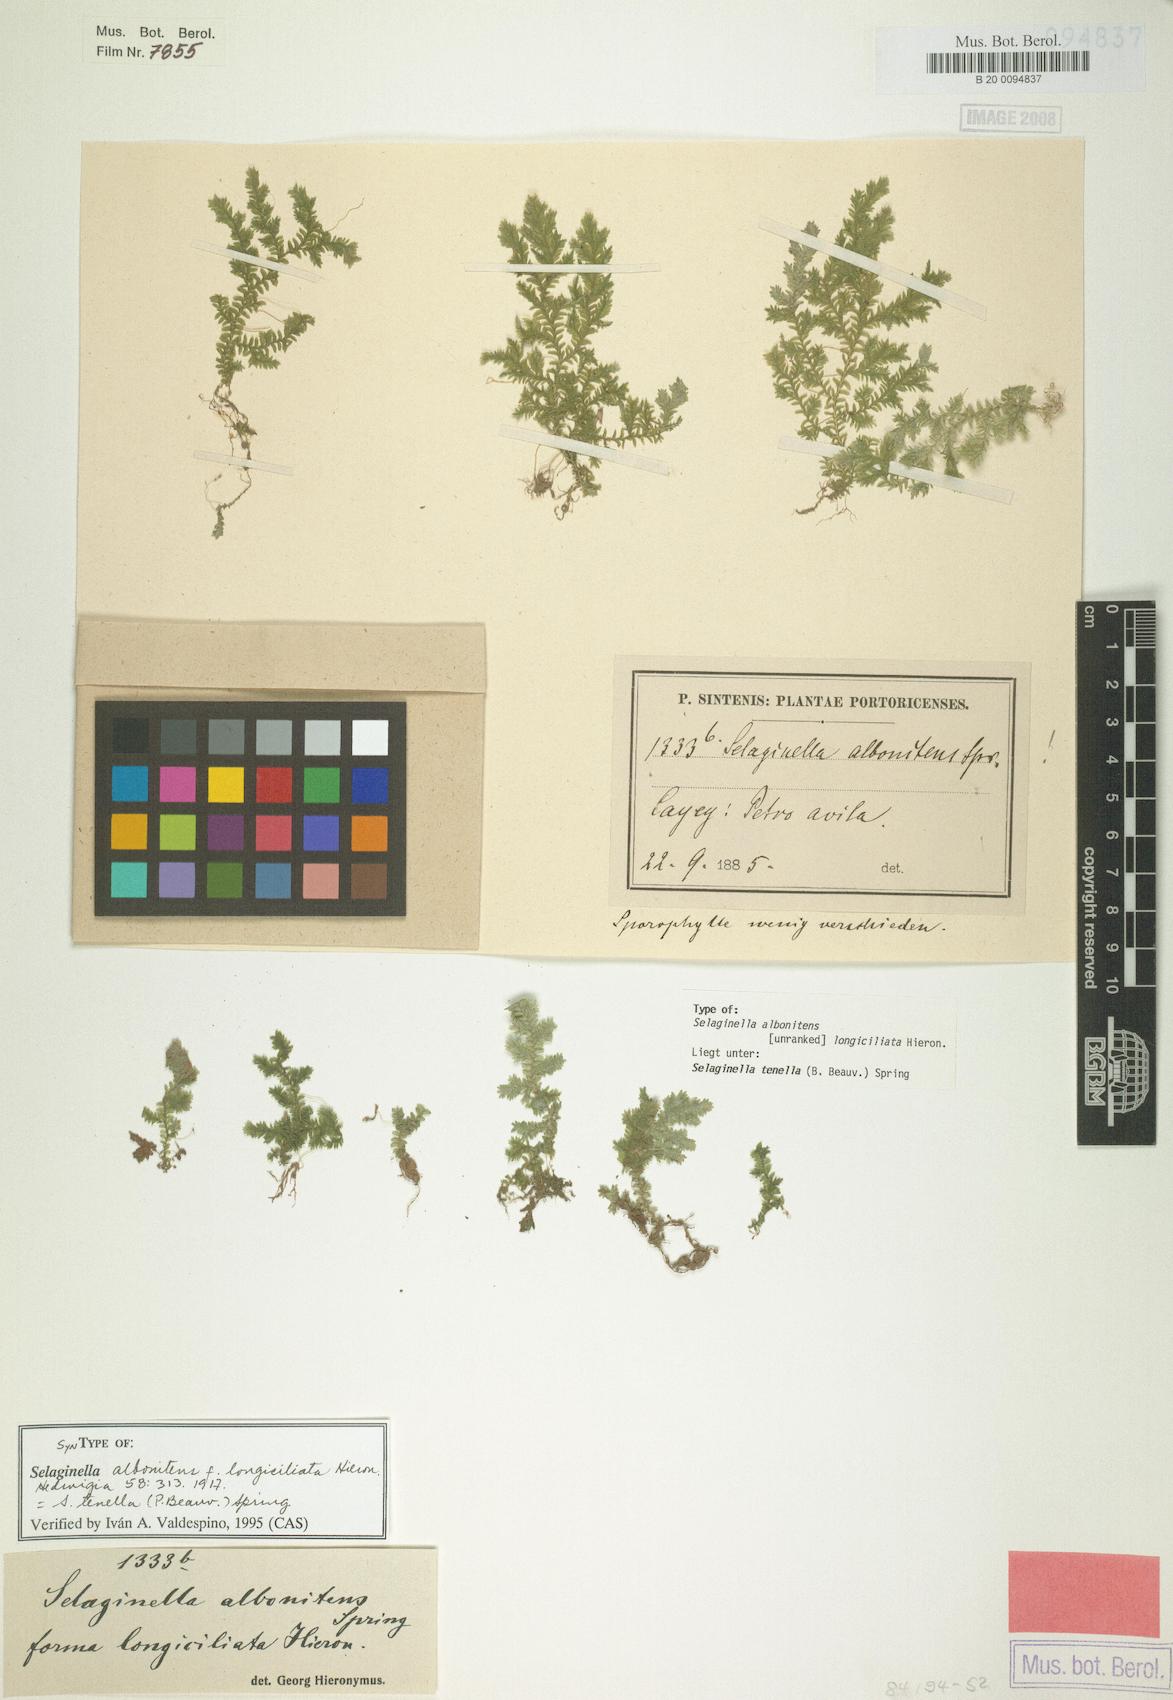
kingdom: Plantae
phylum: Tracheophyta
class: Lycopodiopsida
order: Selaginellales
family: Selaginellaceae
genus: Selaginella
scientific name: Selaginella tenella
